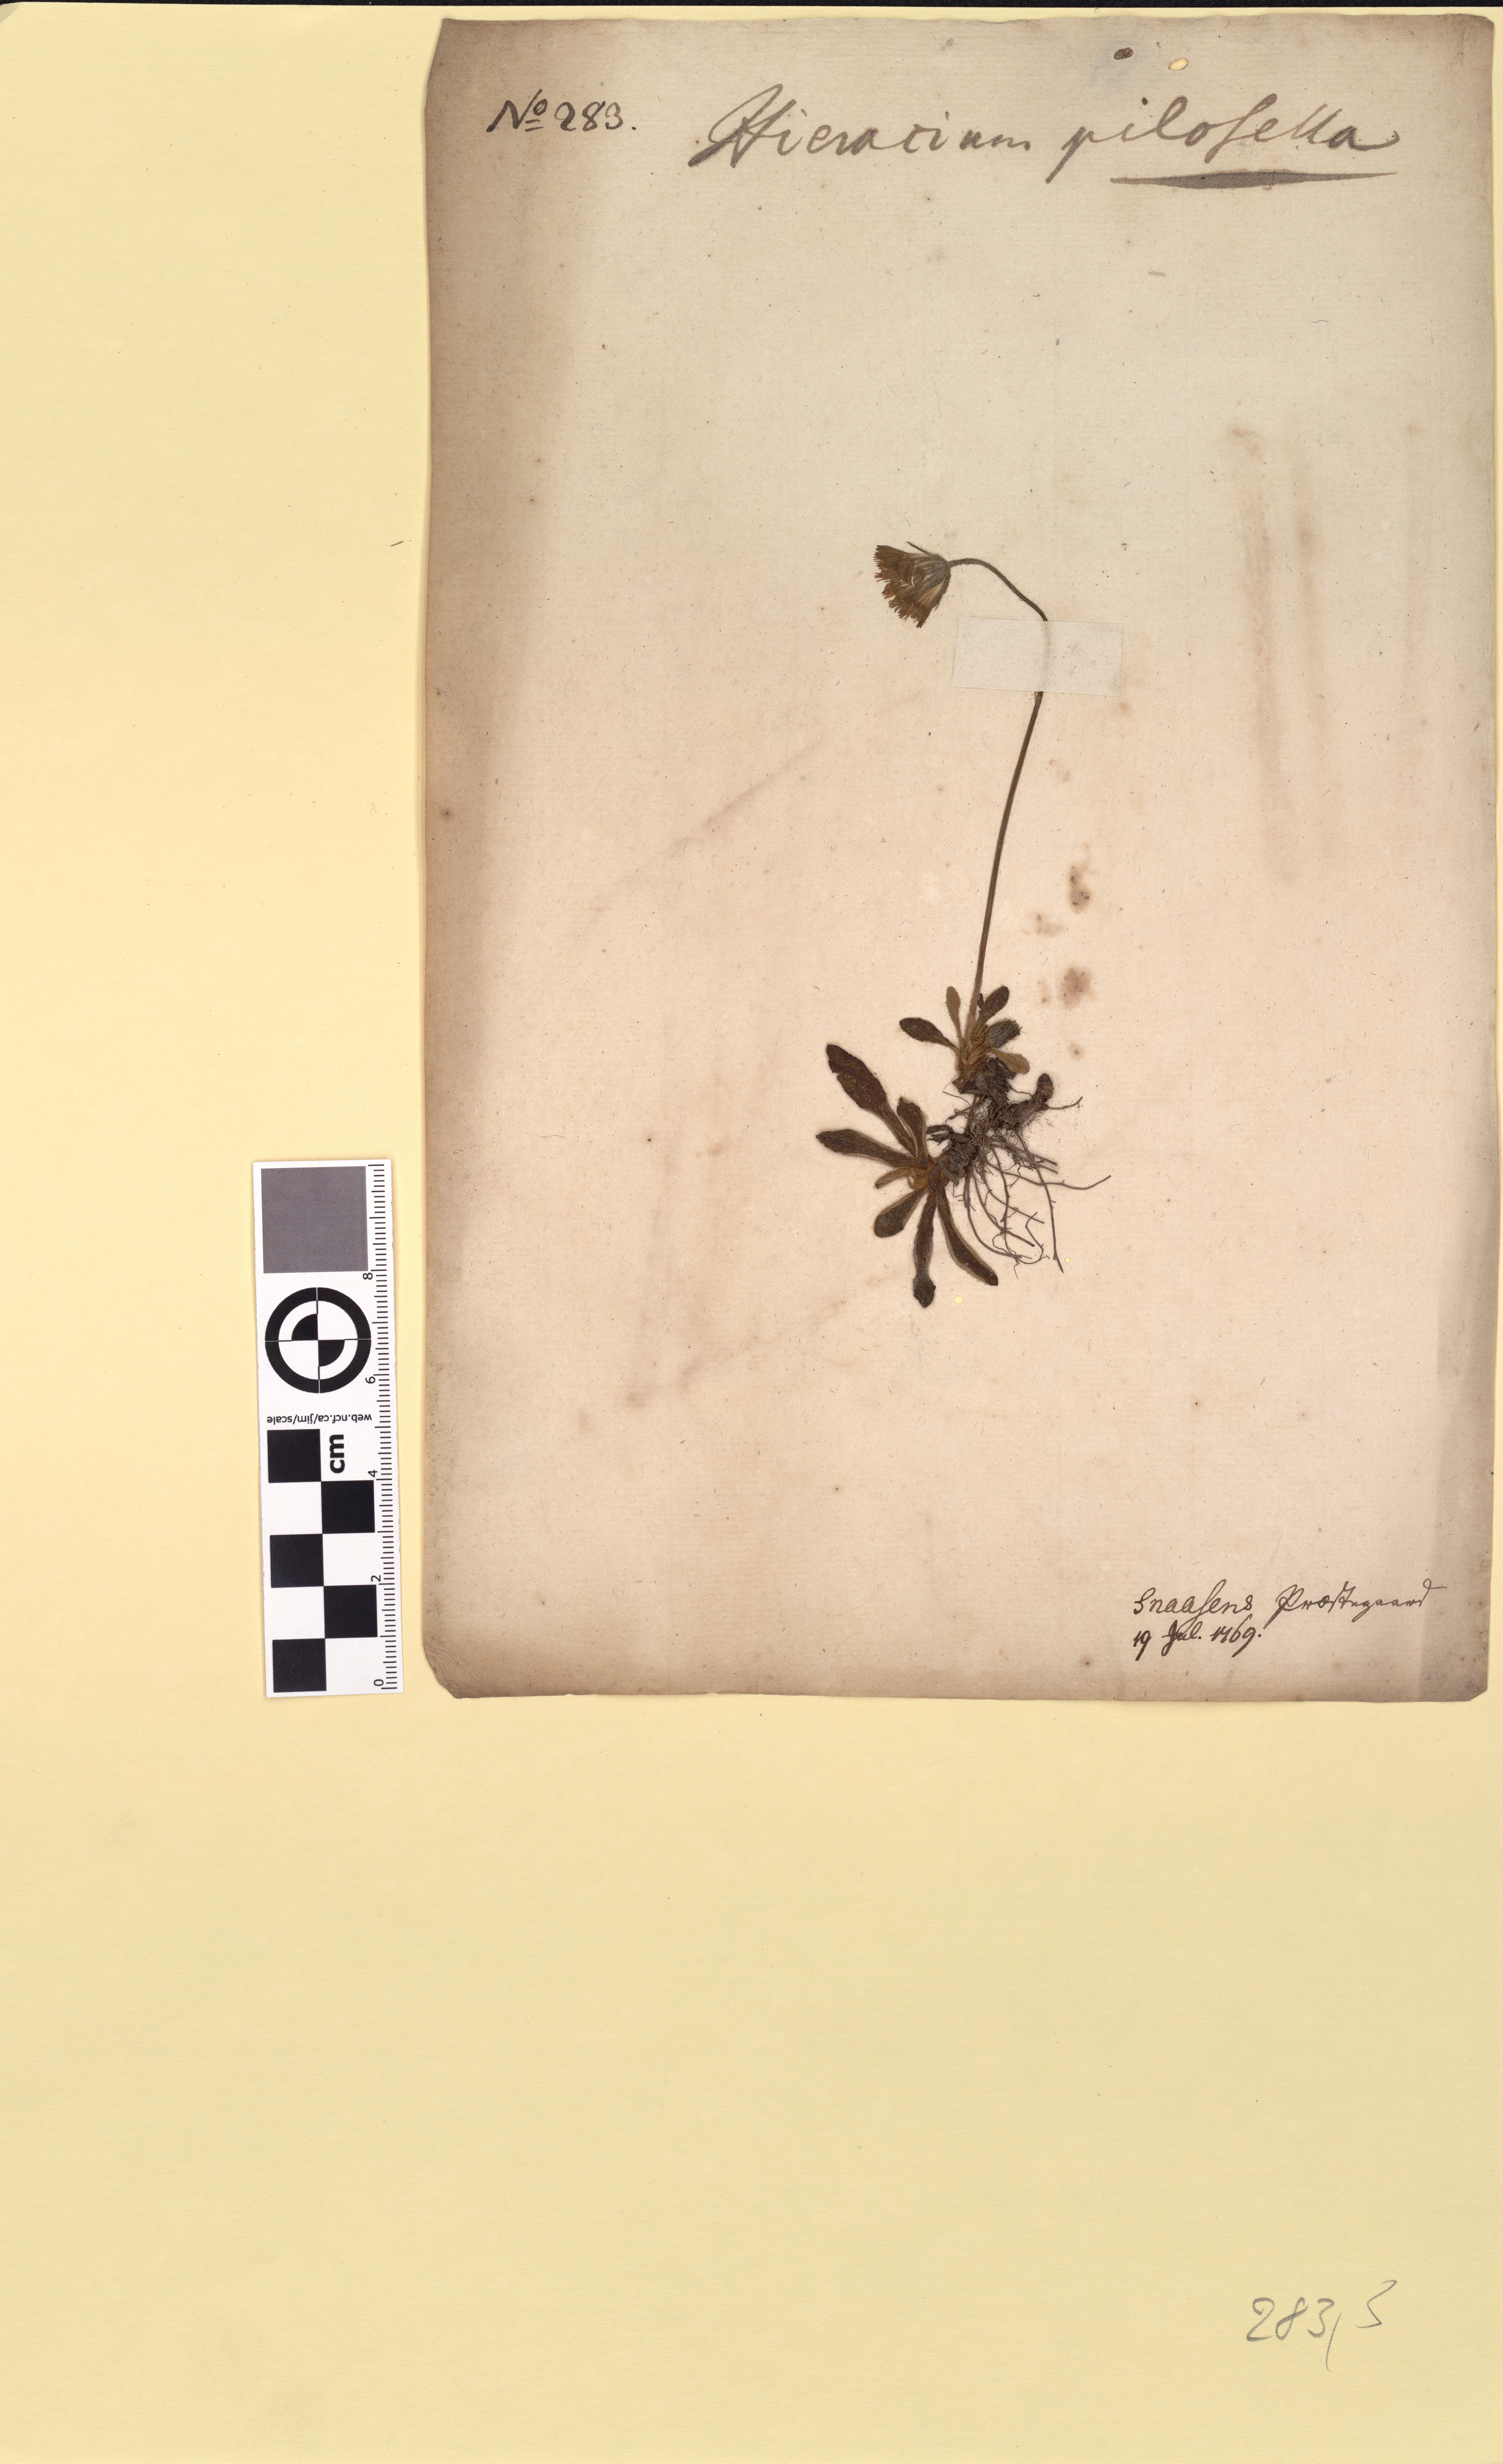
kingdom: Plantae
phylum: Tracheophyta
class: Magnoliopsida
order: Asterales
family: Asteraceae
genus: Pilosella
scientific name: Pilosella officinarum
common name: Mouse-ear hawkweed
